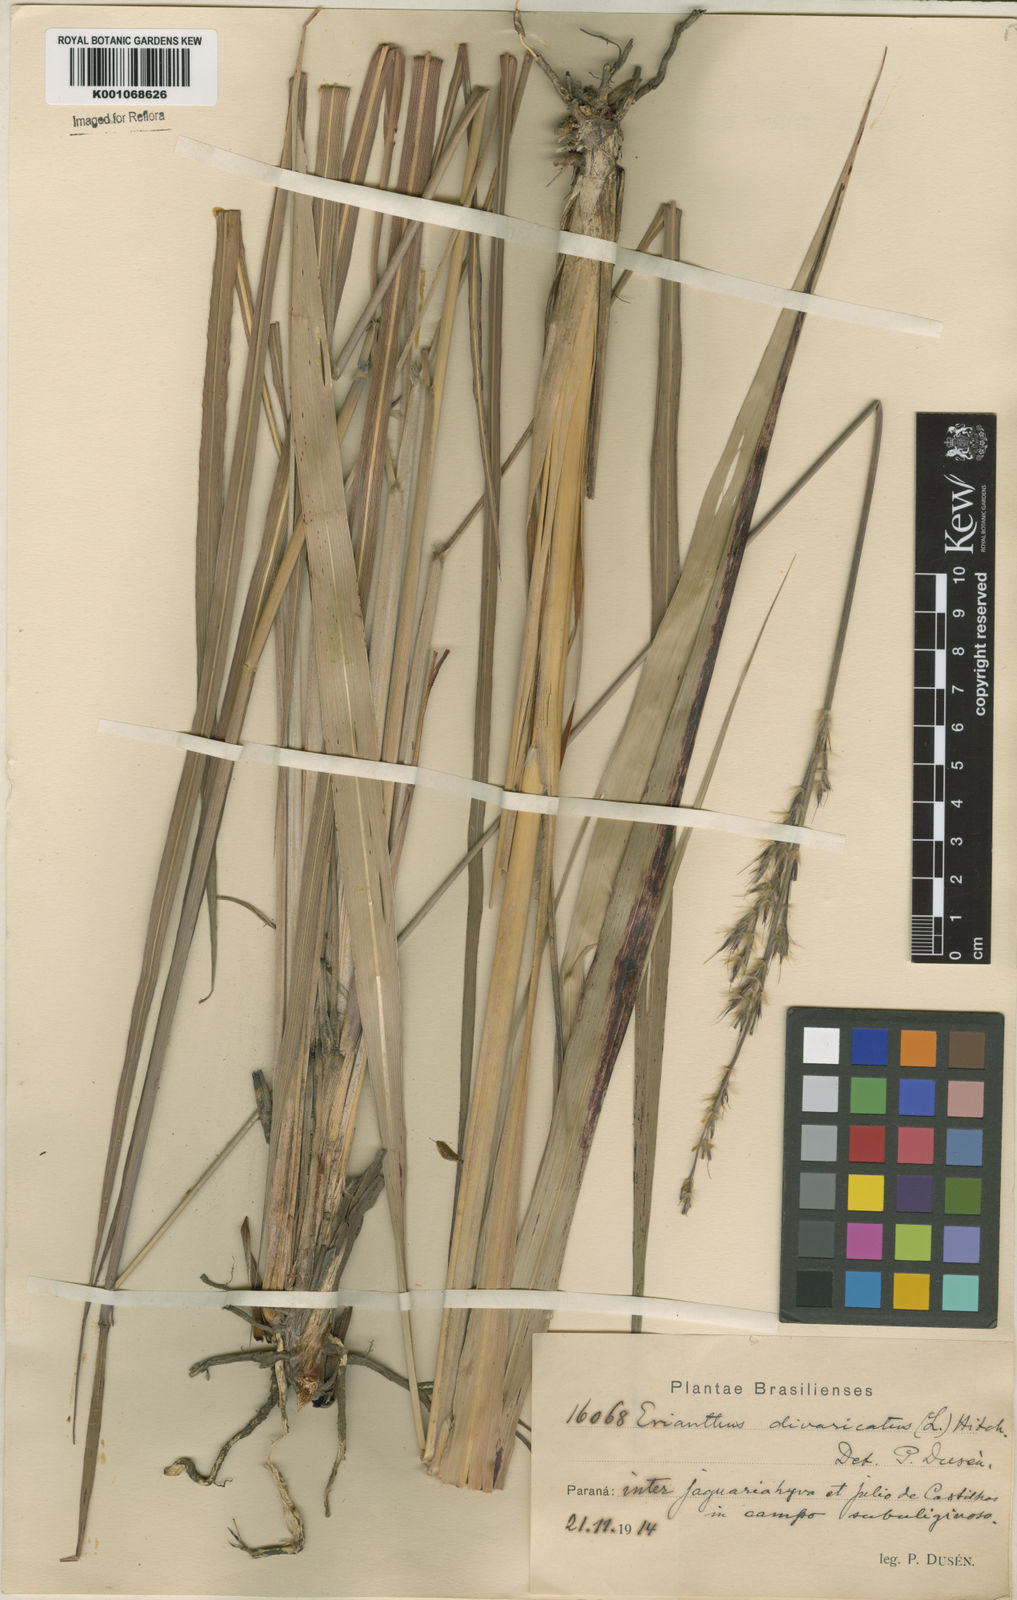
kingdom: Plantae
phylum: Tracheophyta
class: Liliopsida
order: Poales
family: Poaceae
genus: Saccharum
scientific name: Saccharum angustifolium
